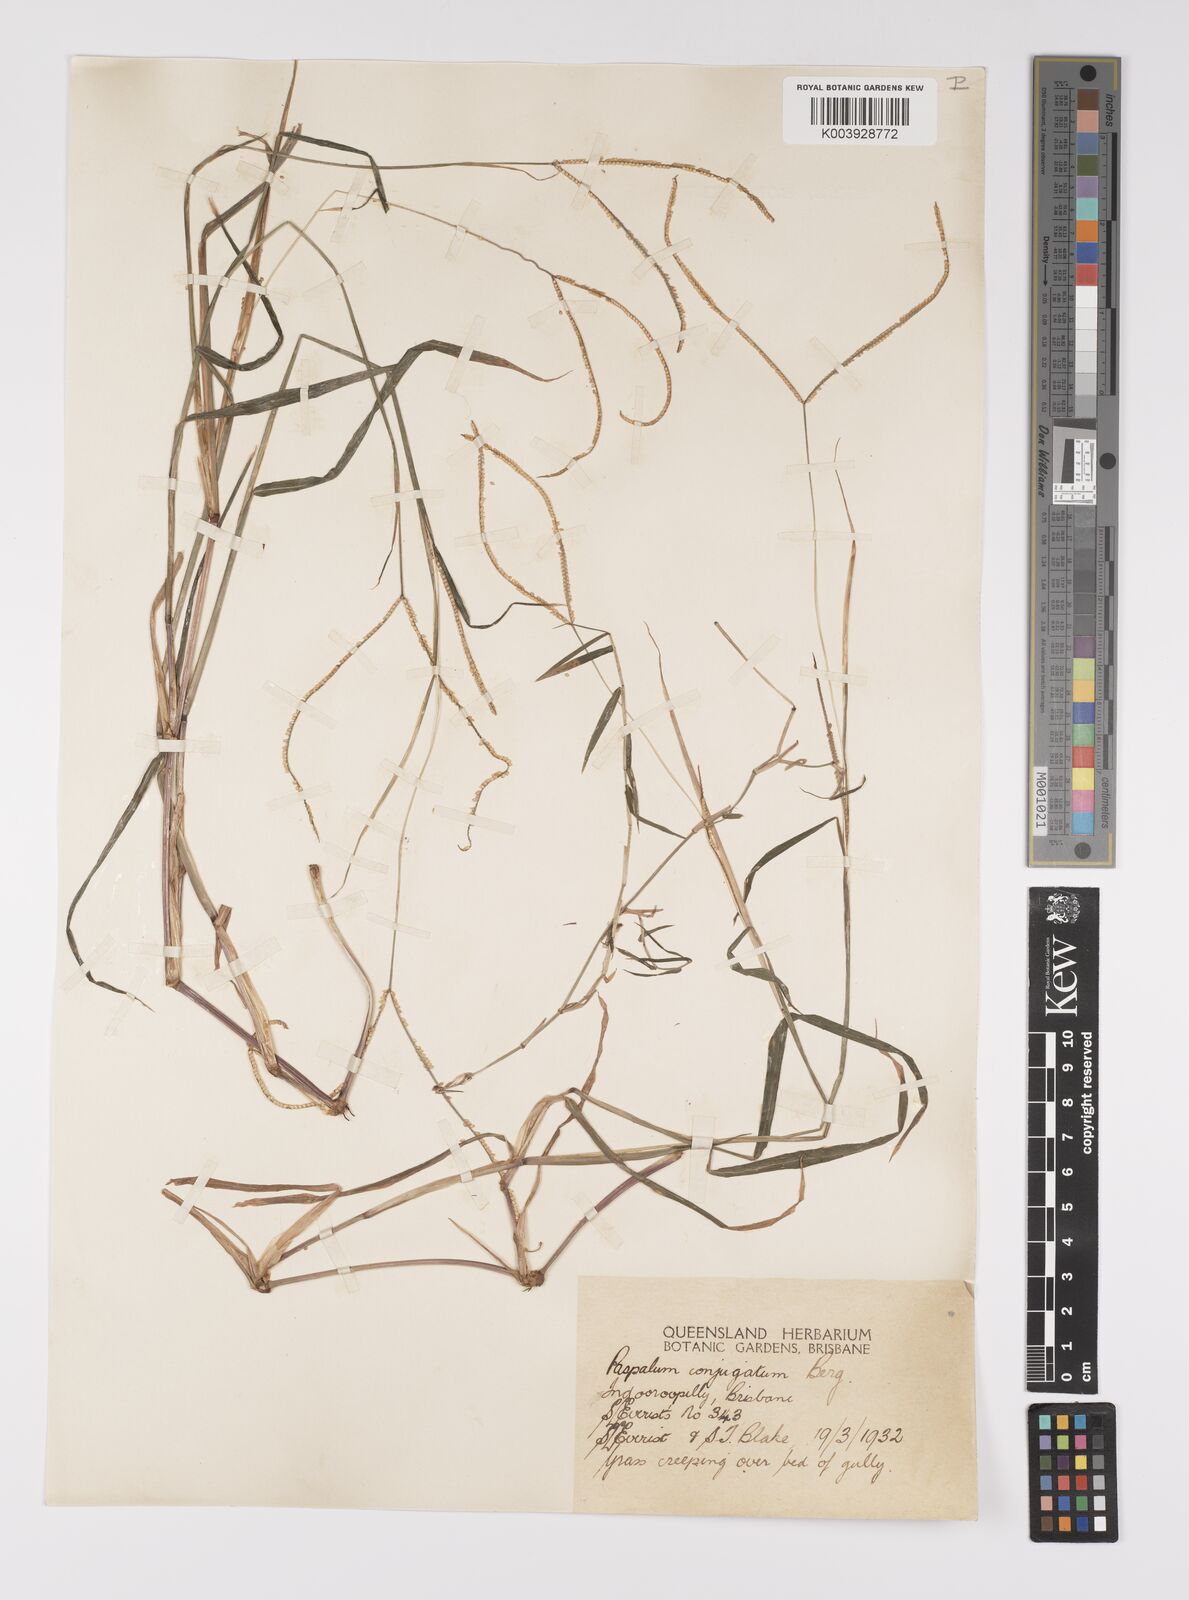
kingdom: Plantae
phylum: Tracheophyta
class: Liliopsida
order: Poales
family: Poaceae
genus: Paspalum
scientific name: Paspalum conjugatum
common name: Hilograss
